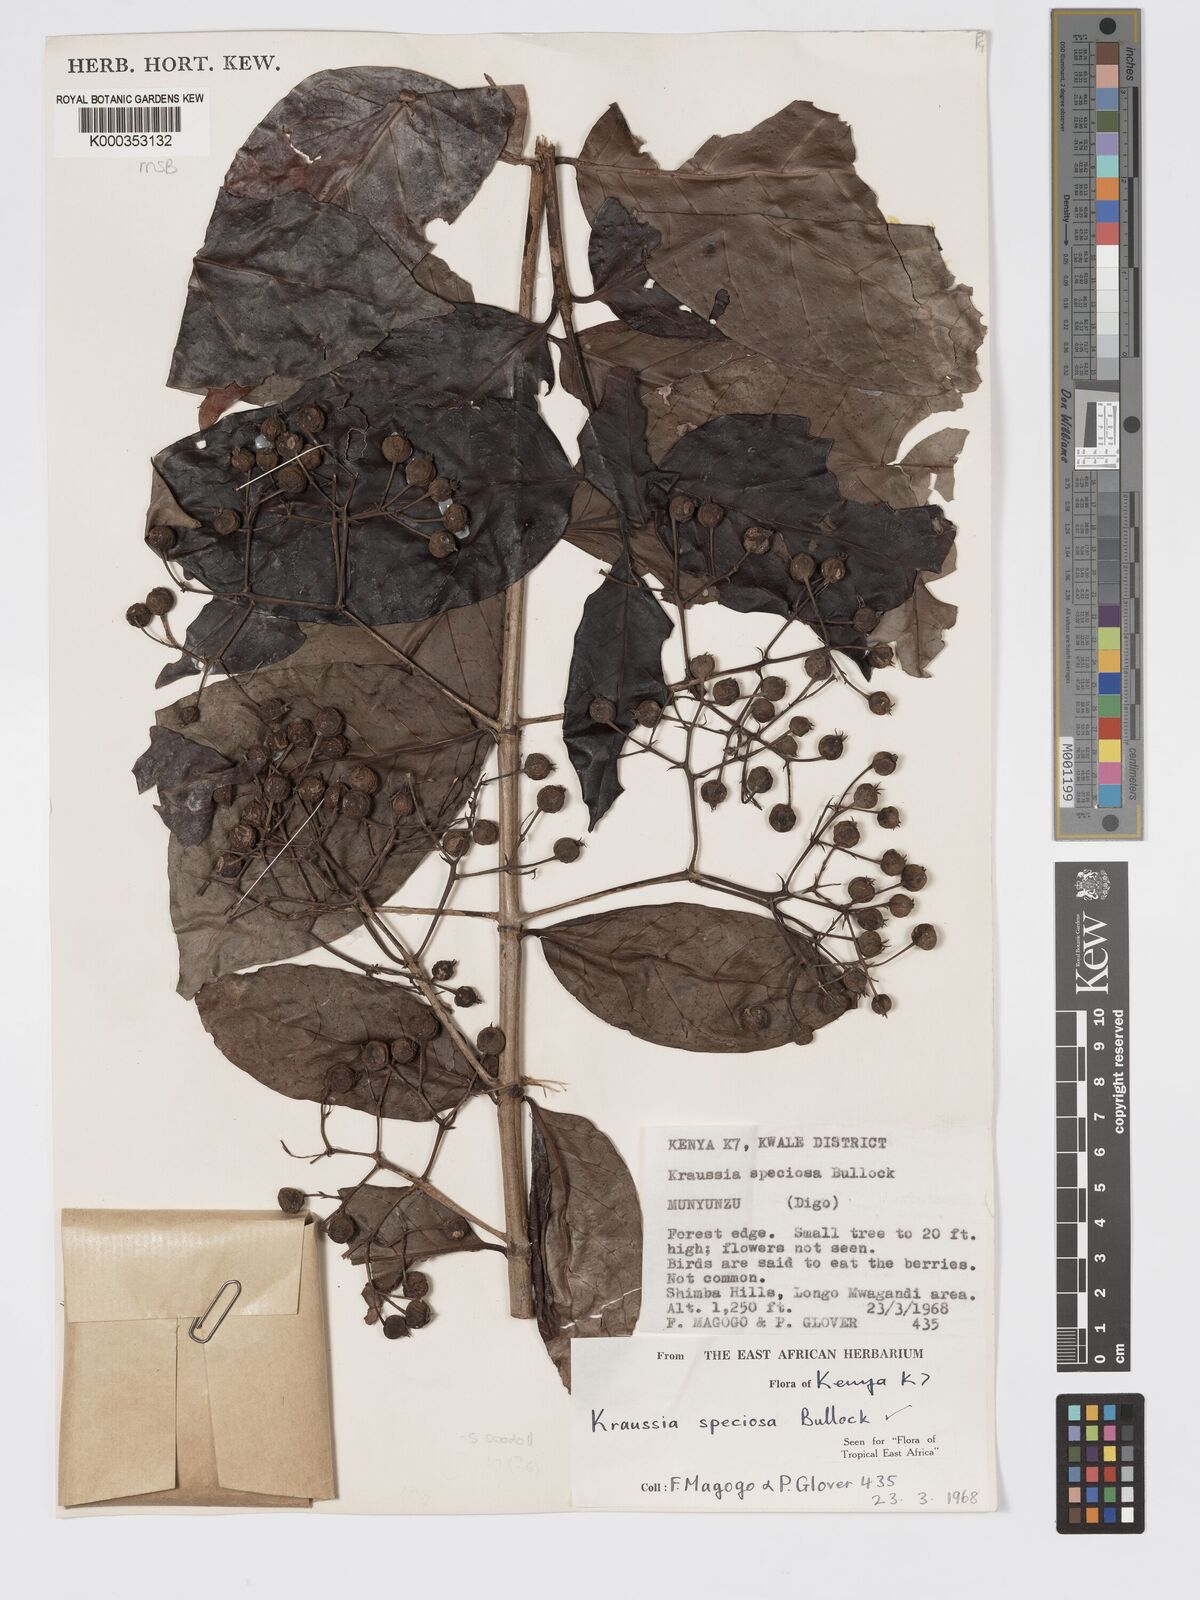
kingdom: Plantae
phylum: Tracheophyta
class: Magnoliopsida
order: Gentianales
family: Rubiaceae
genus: Kraussia
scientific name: Kraussia speciosa
